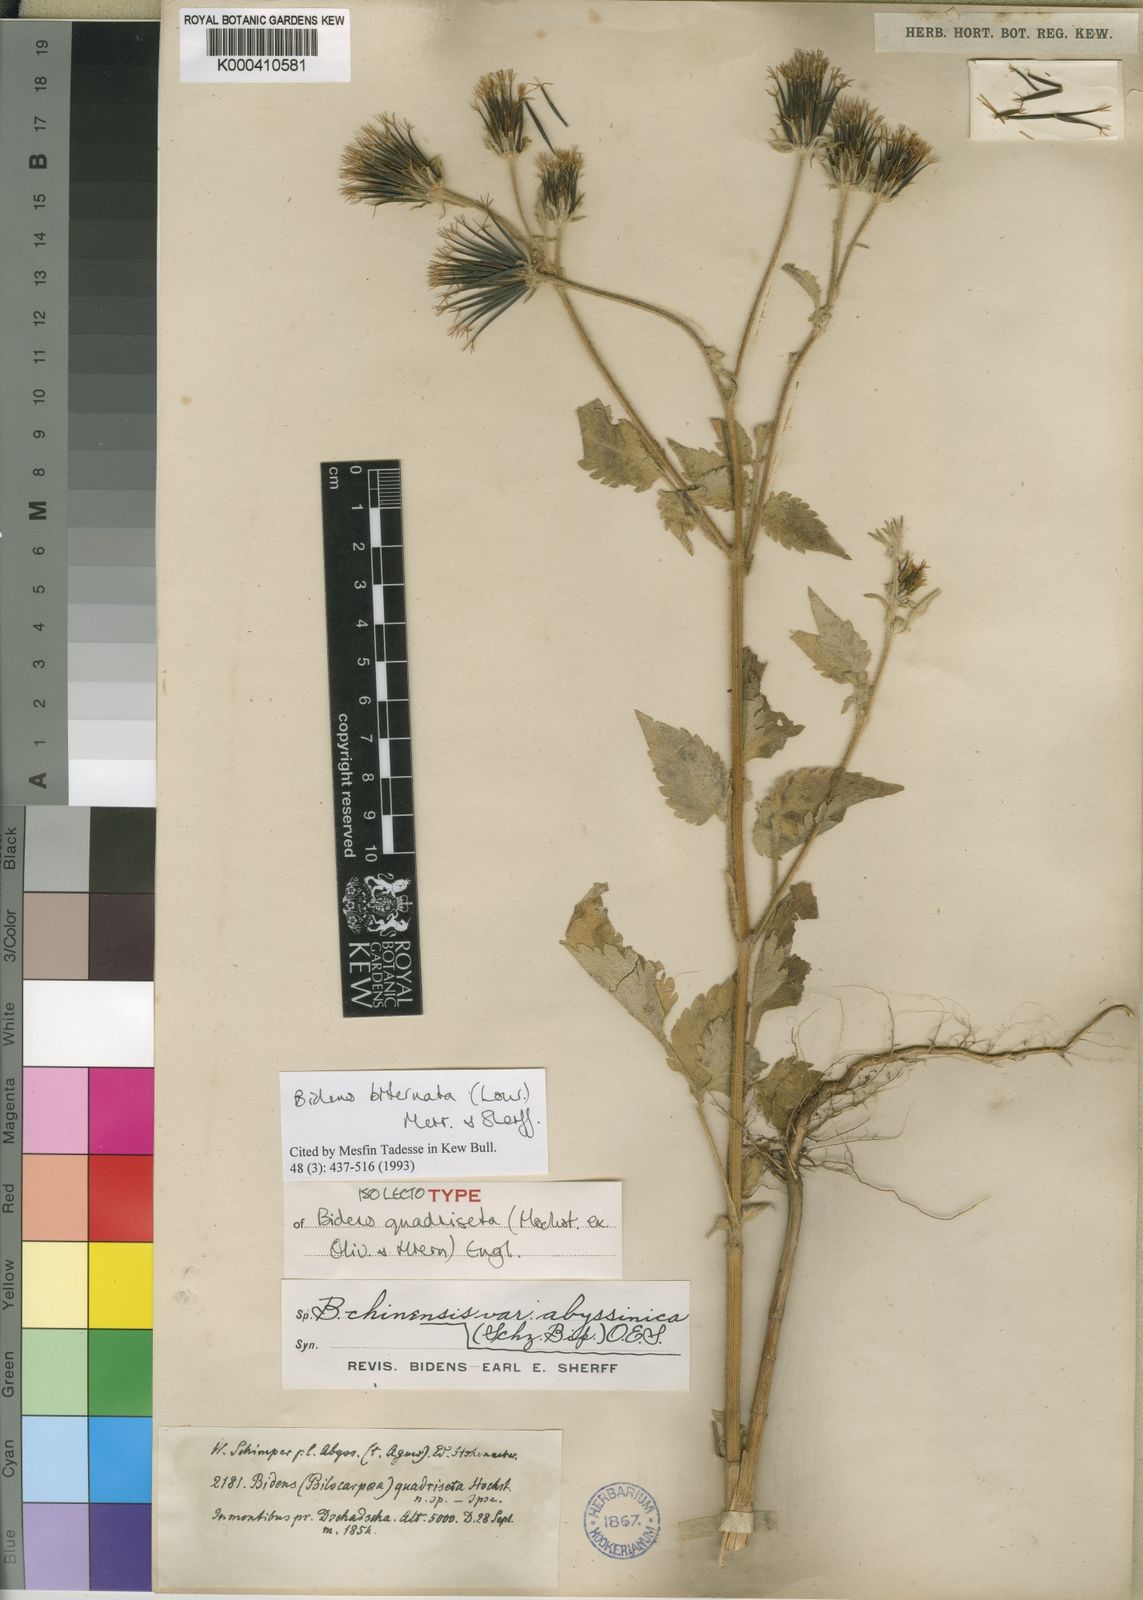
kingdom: Plantae
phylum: Tracheophyta
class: Magnoliopsida
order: Asterales
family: Asteraceae
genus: Bidens
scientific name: Bidens biternata
